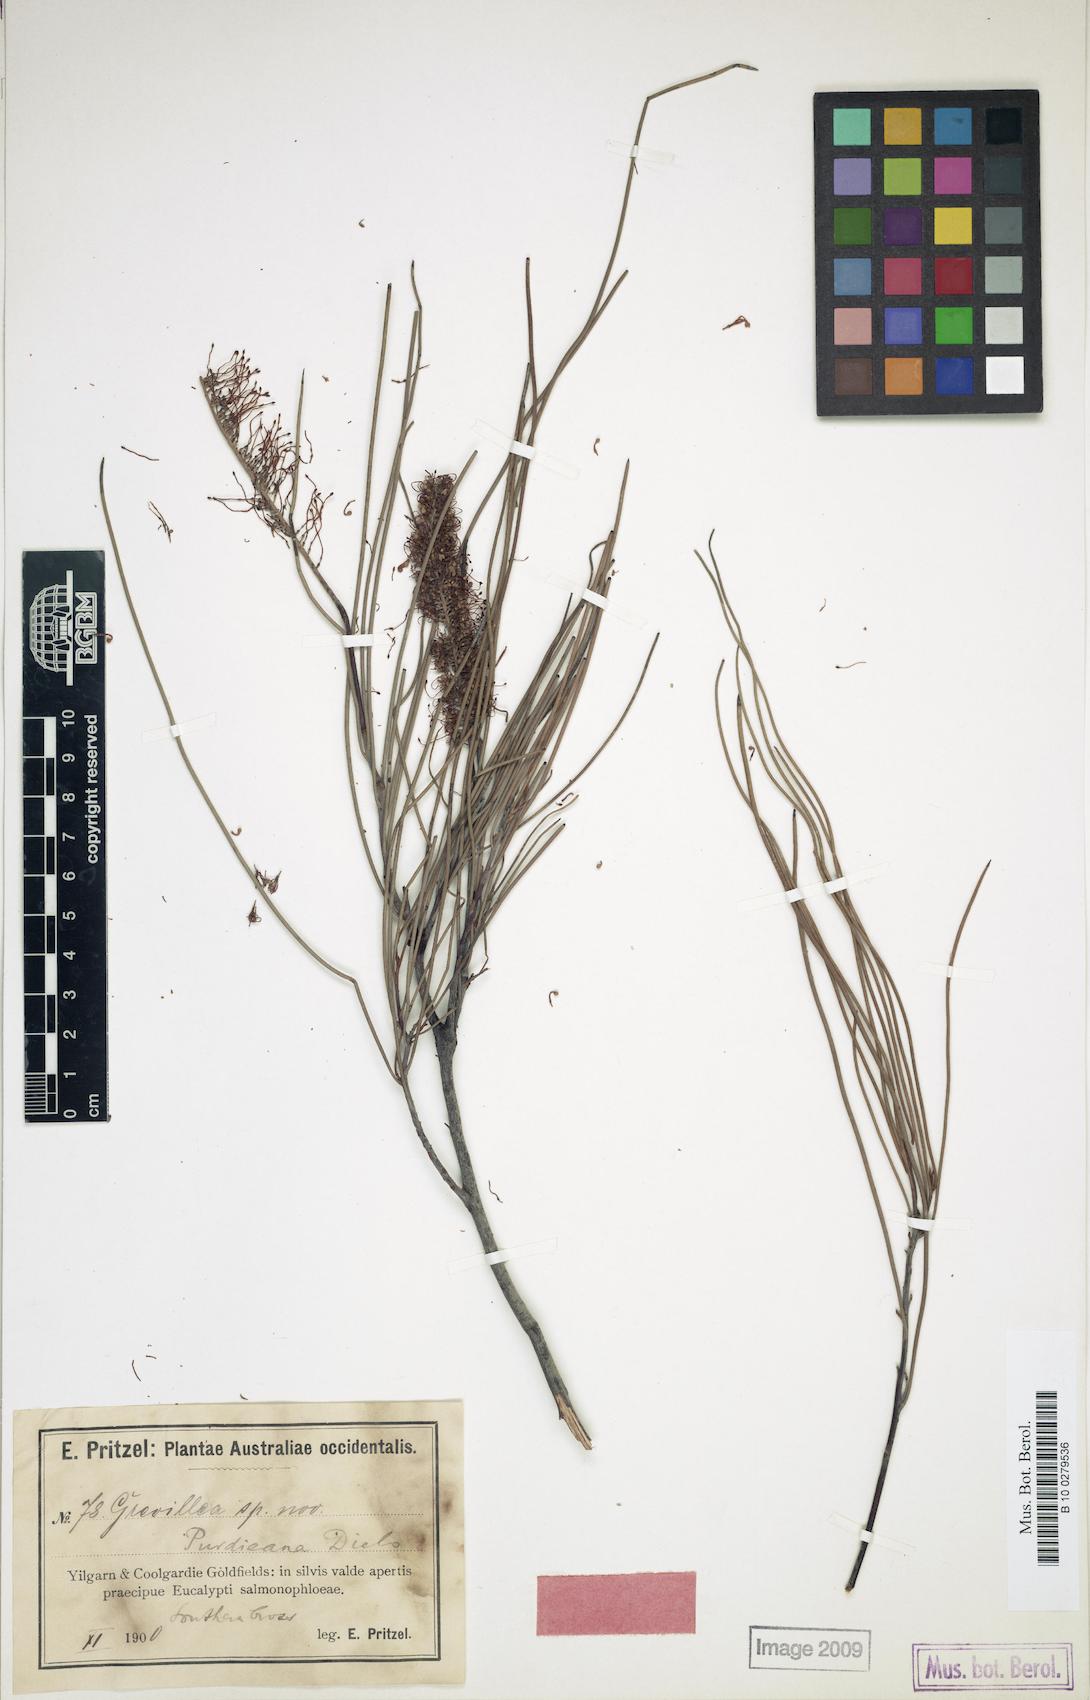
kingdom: Plantae
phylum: Tracheophyta
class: Magnoliopsida
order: Proteales
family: Proteaceae
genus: Grevillea
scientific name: Grevillea nematophylla
